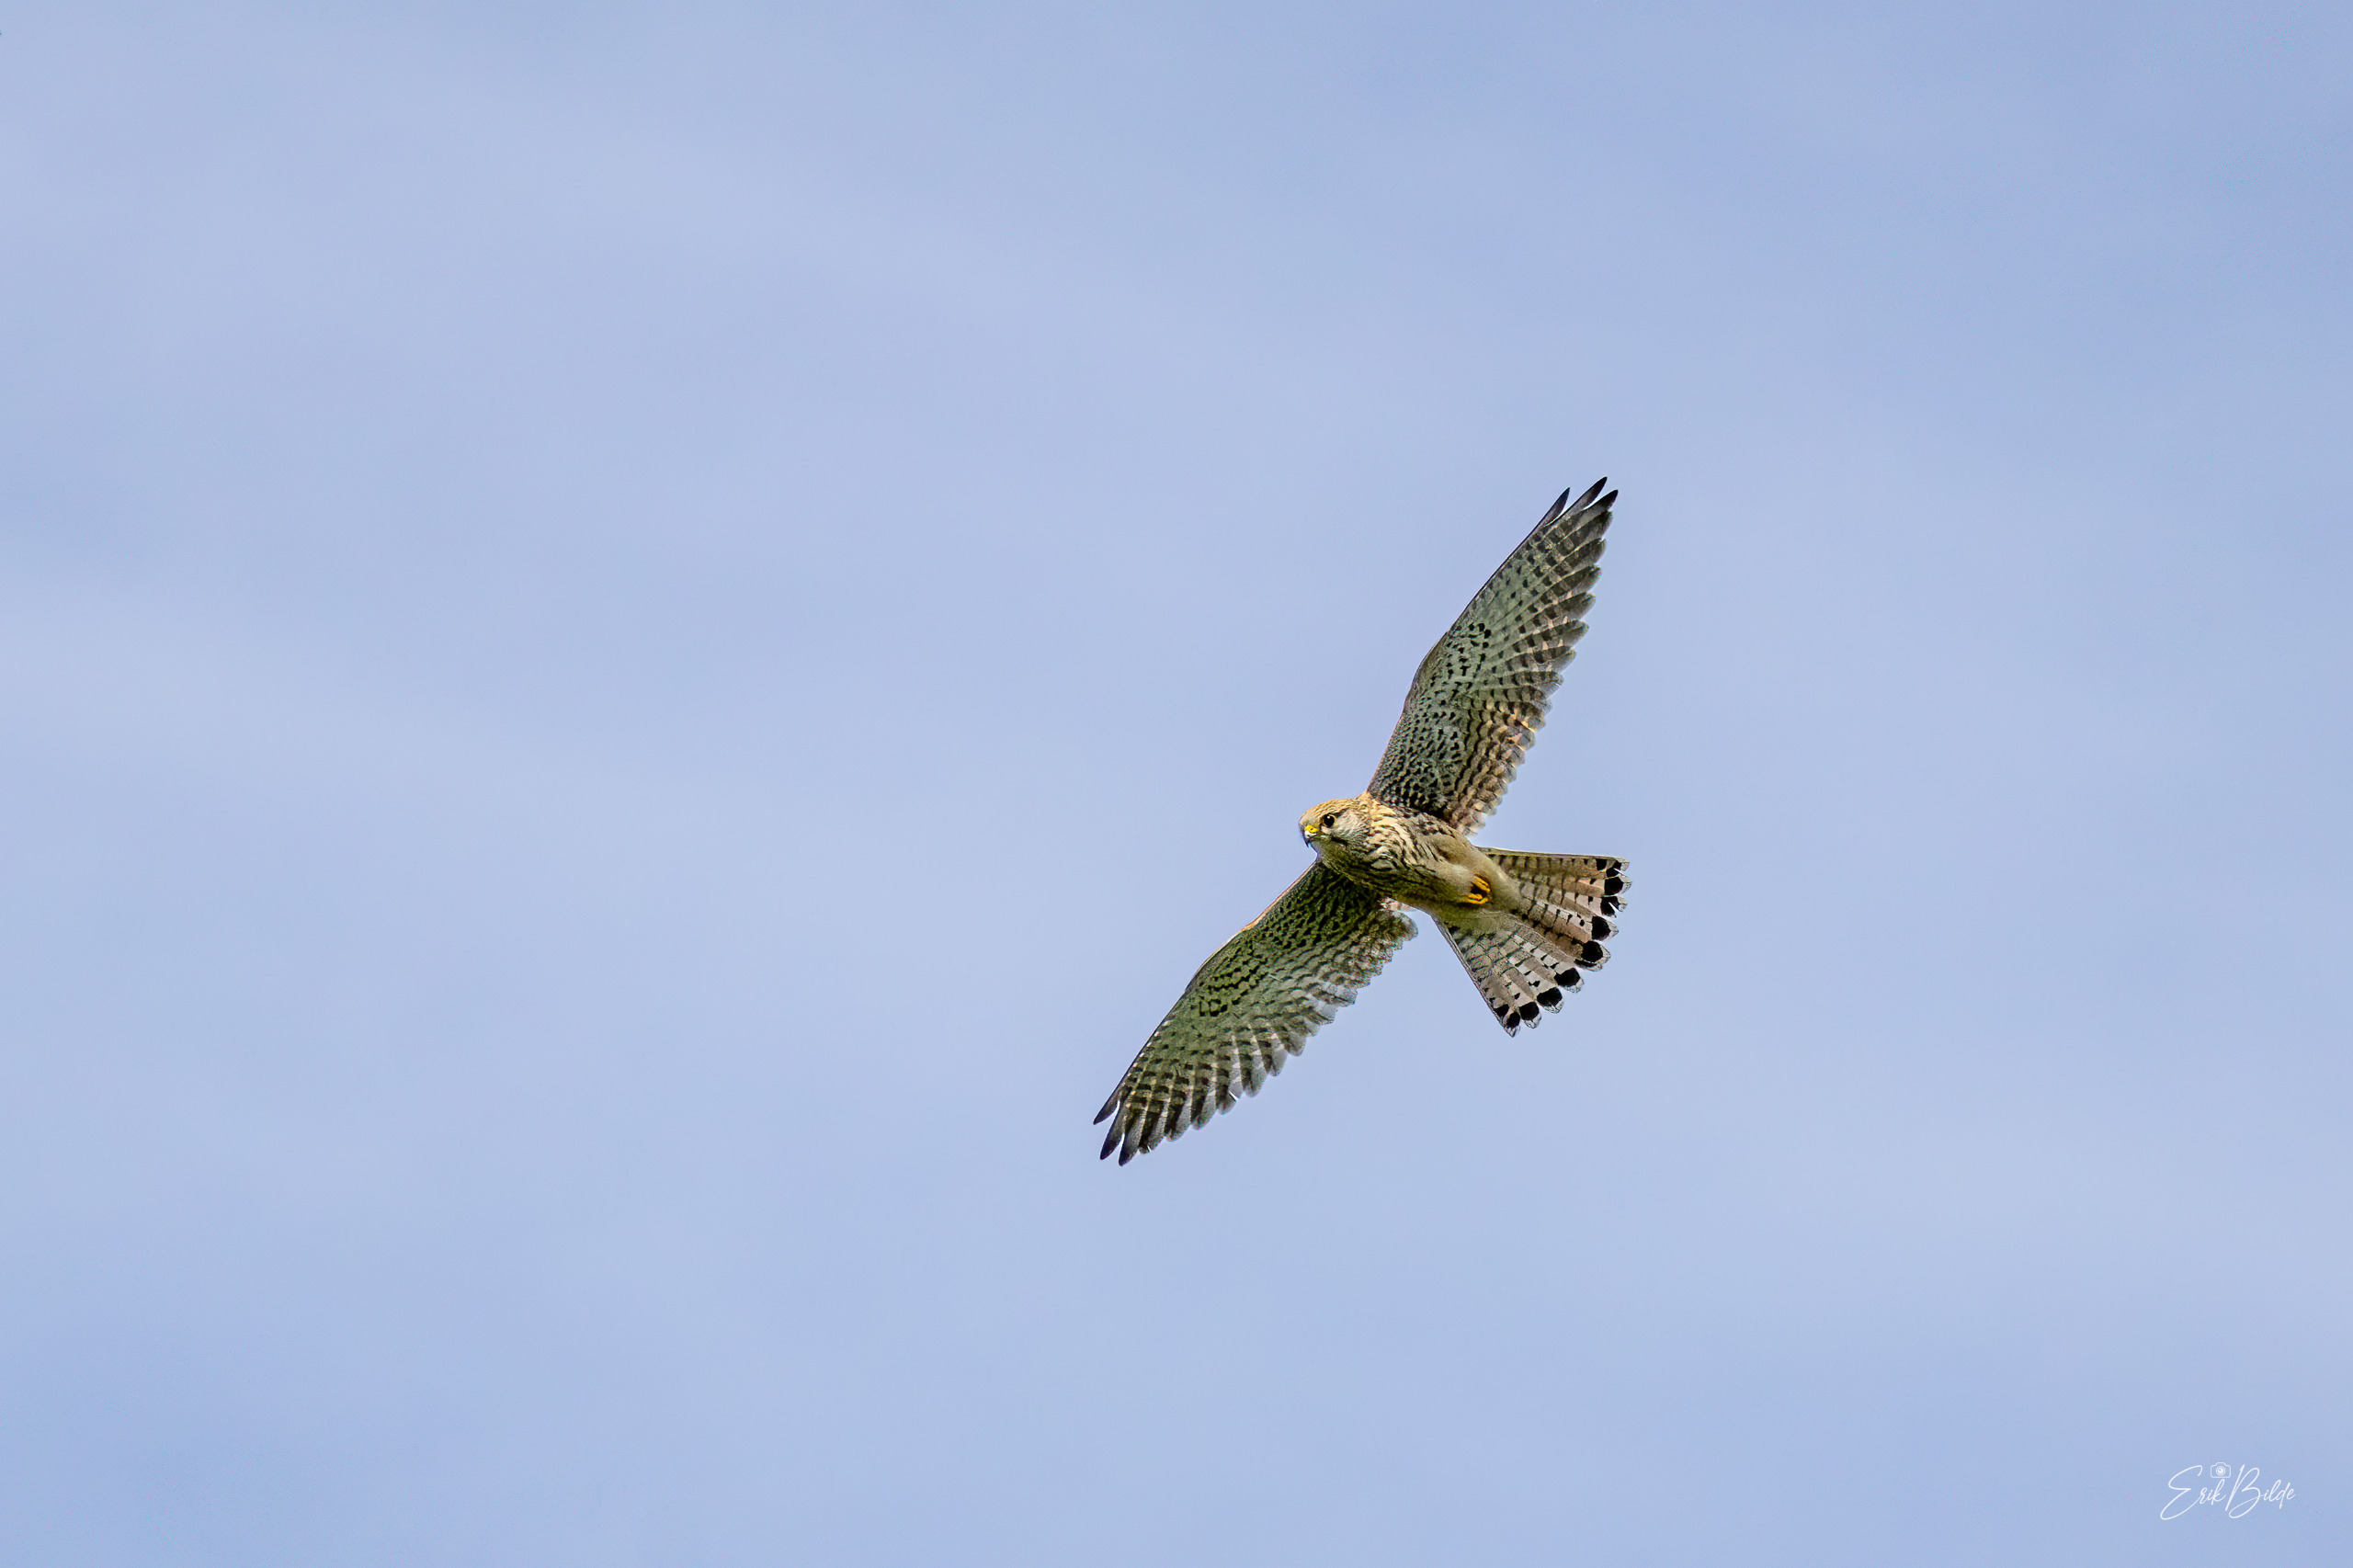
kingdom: Animalia
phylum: Chordata
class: Aves
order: Falconiformes
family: Falconidae
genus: Falco
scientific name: Falco tinnunculus
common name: Tårnfalk
